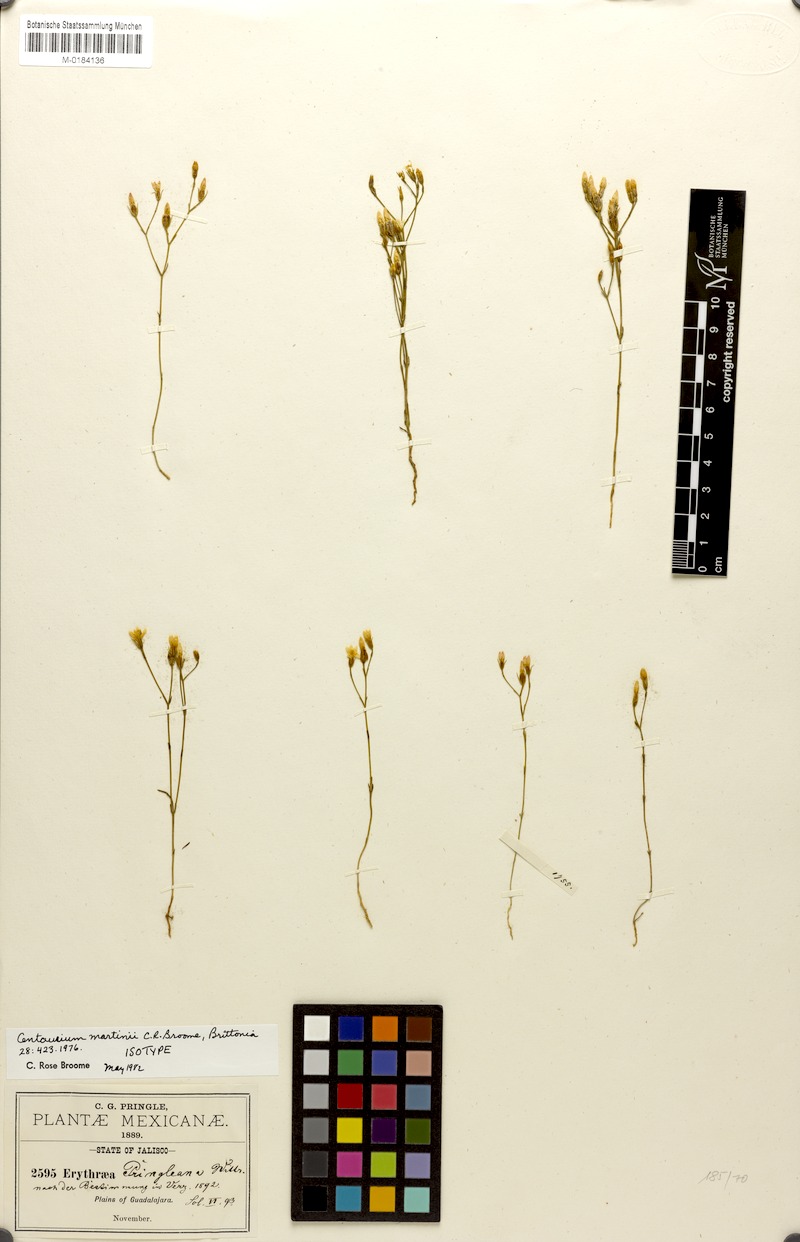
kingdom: Plantae
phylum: Tracheophyta
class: Magnoliopsida
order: Gentianales
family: Gentianaceae
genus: Zeltnera
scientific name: Zeltnera martinii
